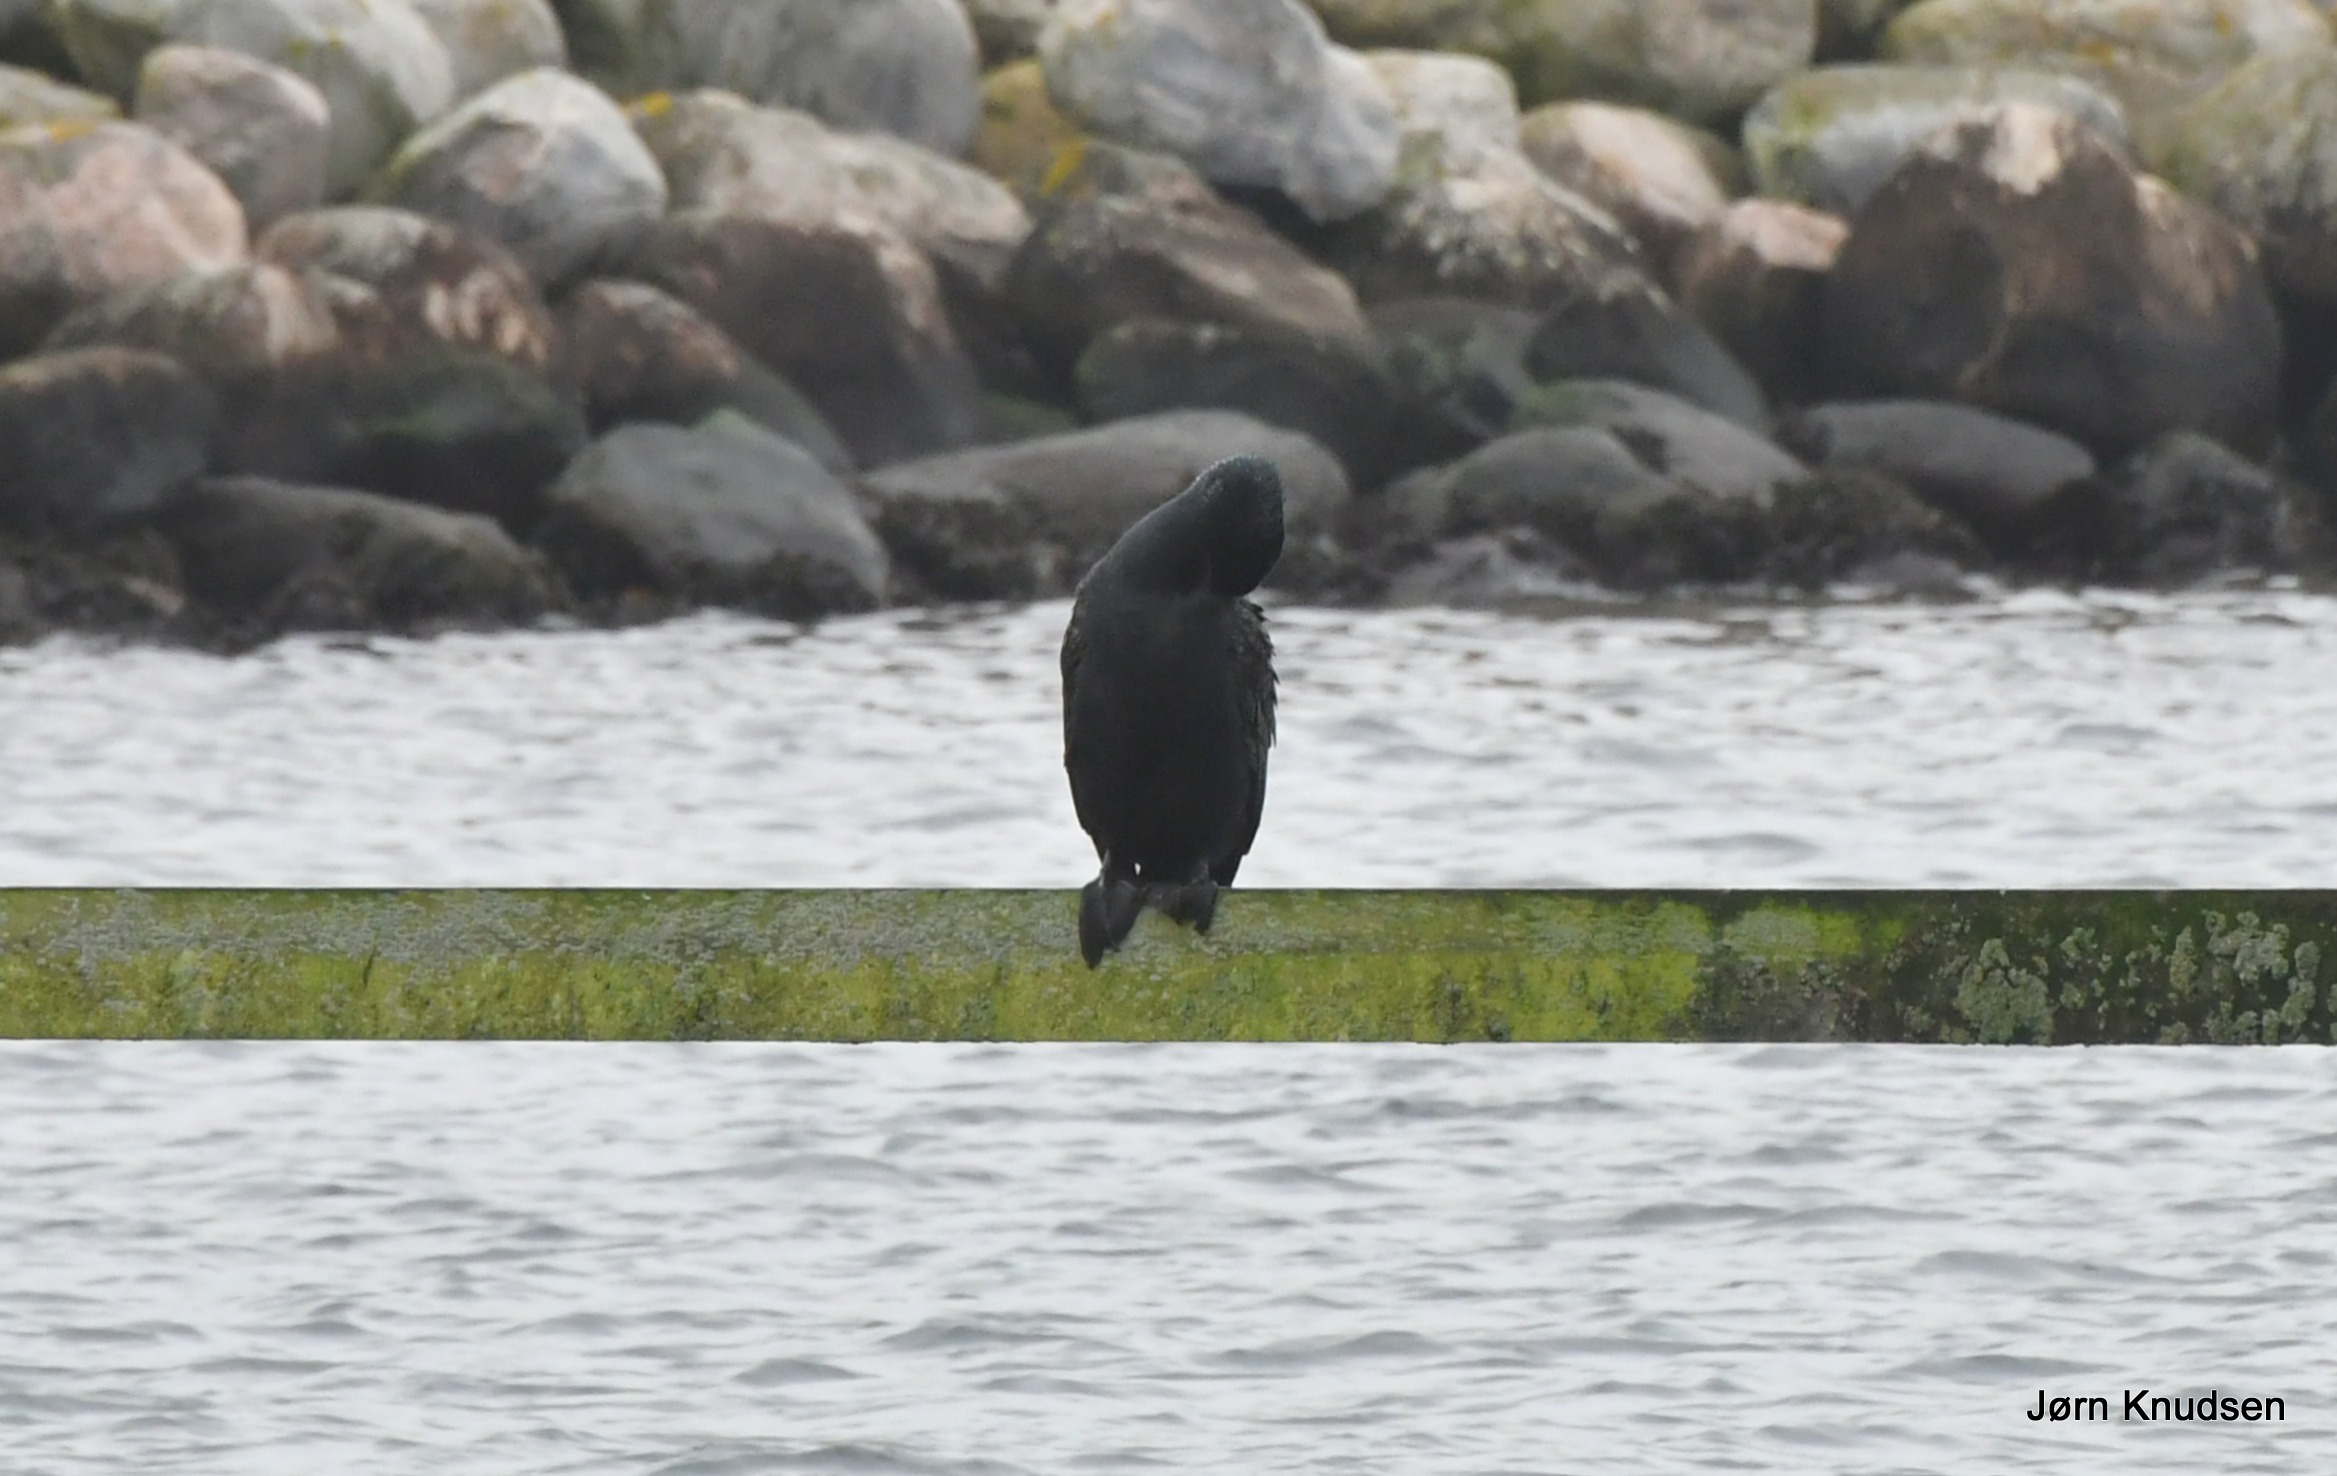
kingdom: Animalia
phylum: Chordata
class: Aves
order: Suliformes
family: Phalacrocoracidae
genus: Phalacrocorax
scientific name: Phalacrocorax carbo
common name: Skarv
